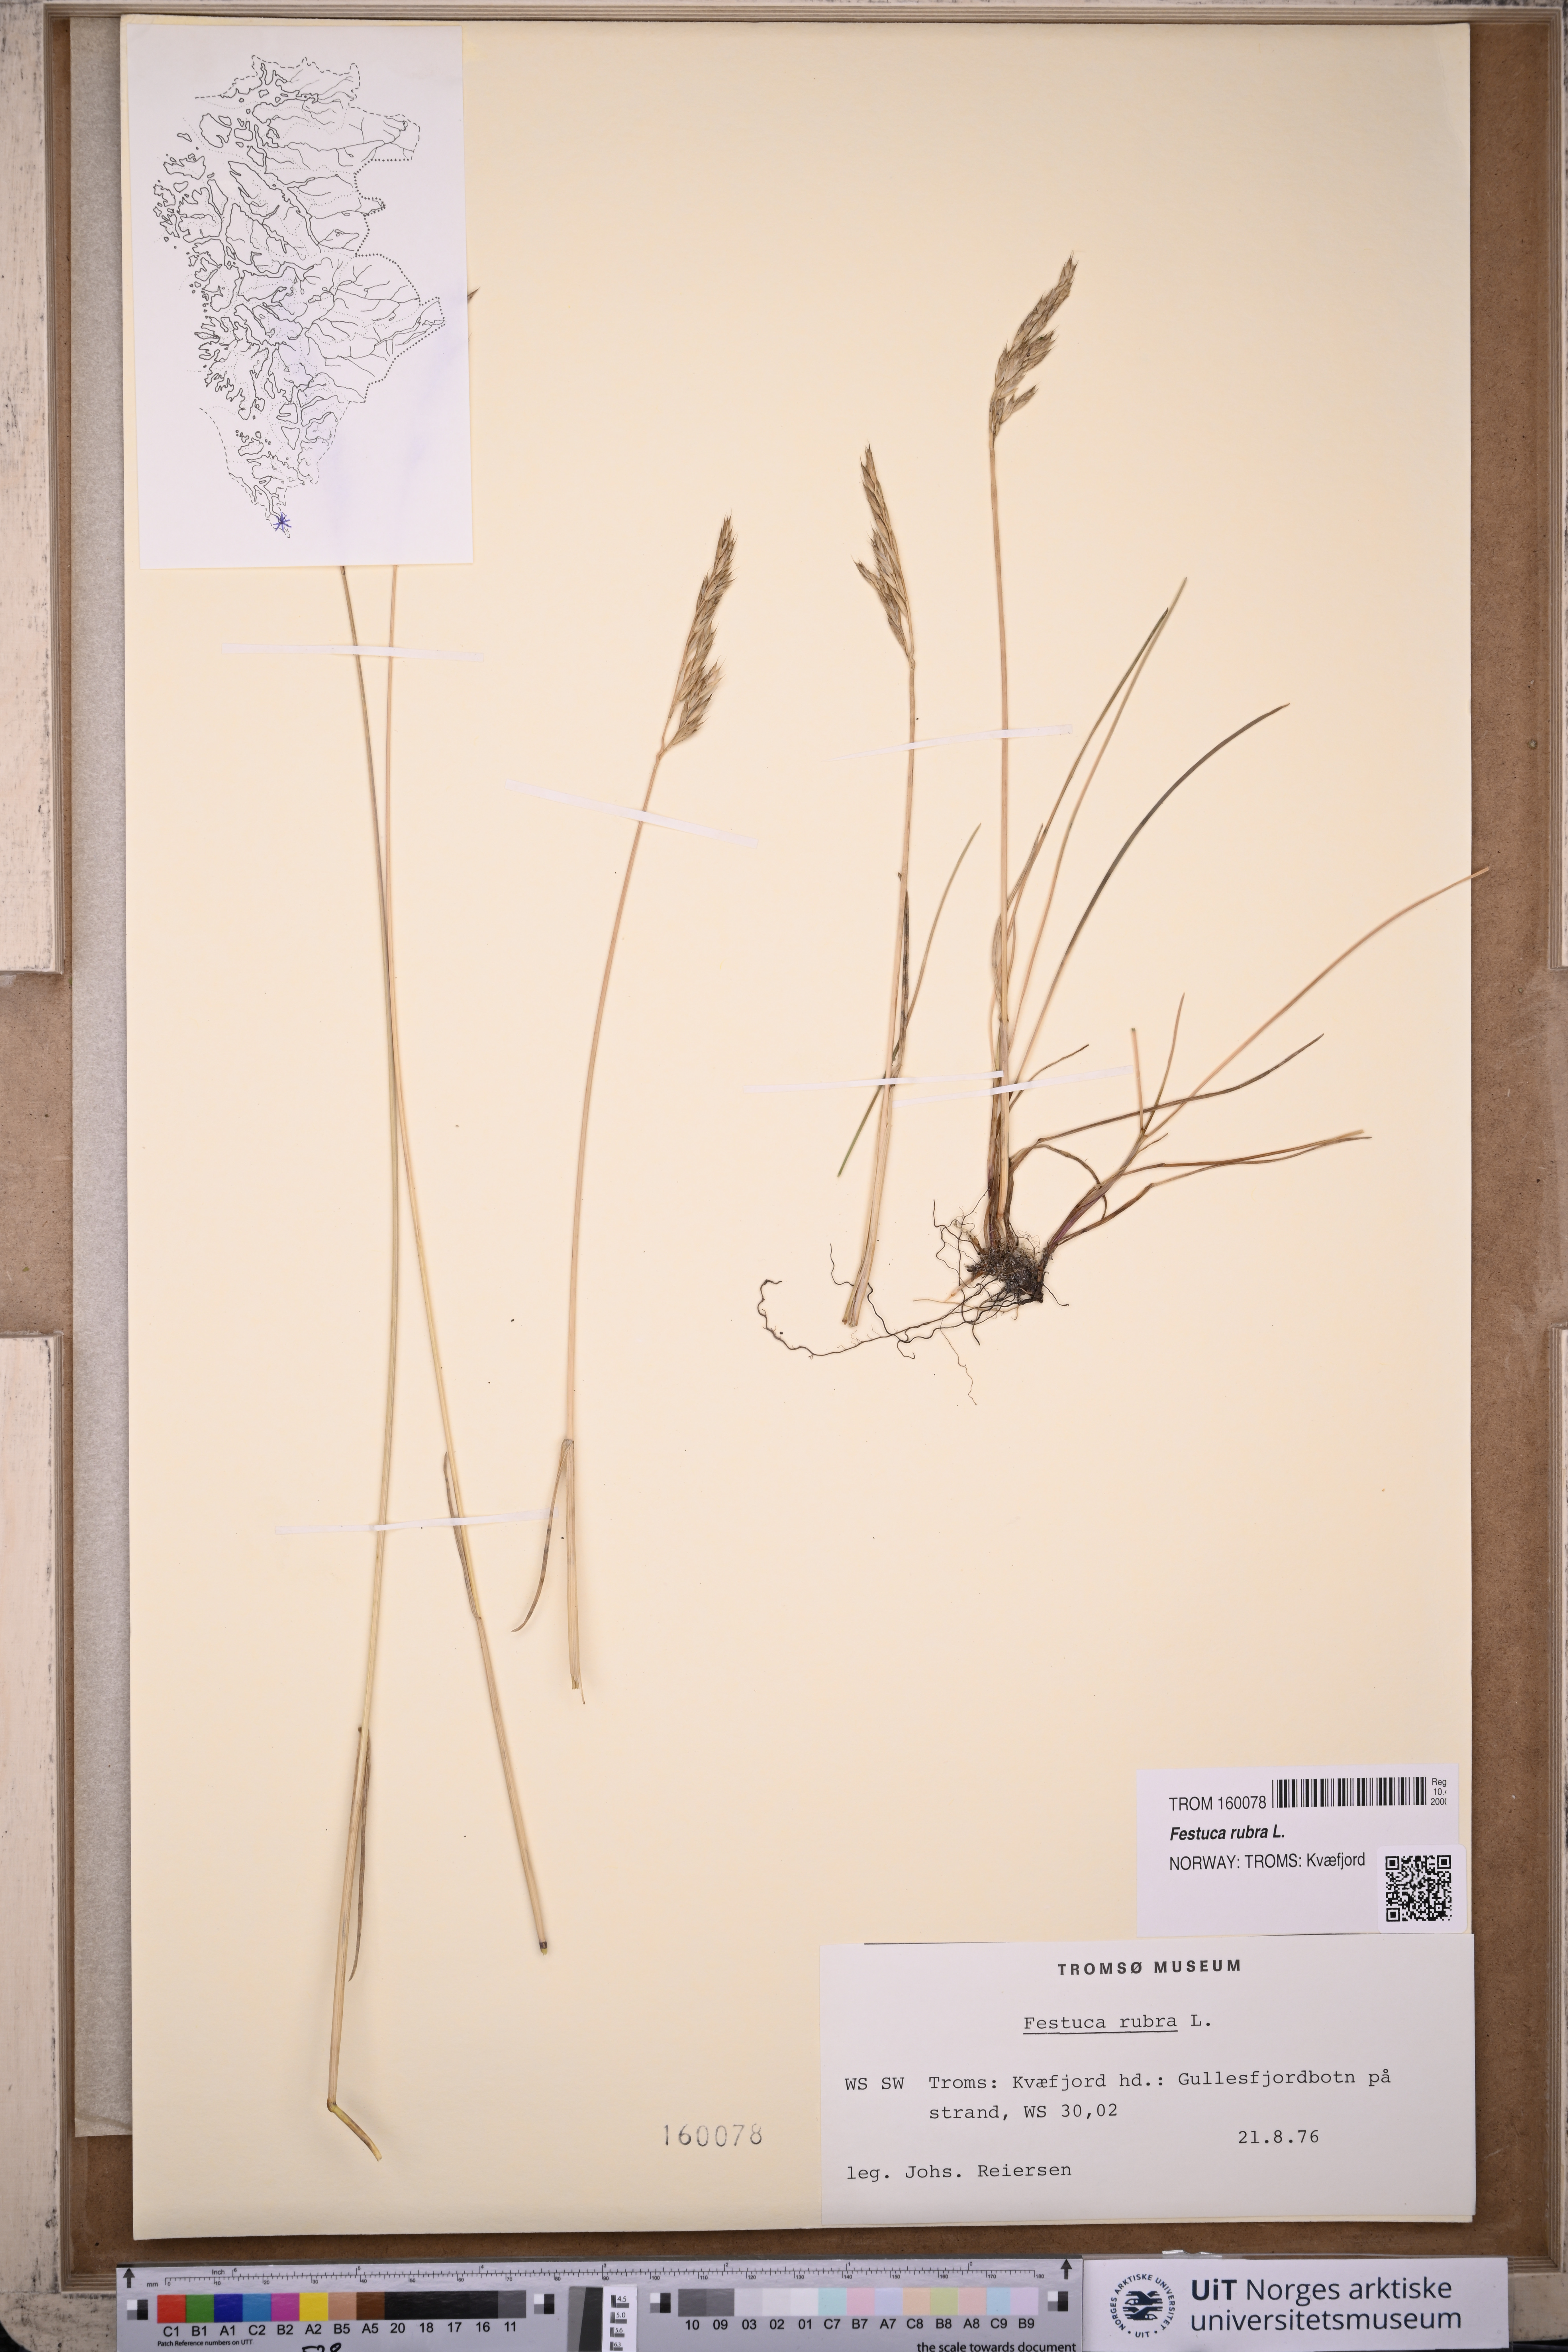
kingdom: Plantae
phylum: Tracheophyta
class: Liliopsida
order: Poales
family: Poaceae
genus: Festuca
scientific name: Festuca rubra
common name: Red fescue
